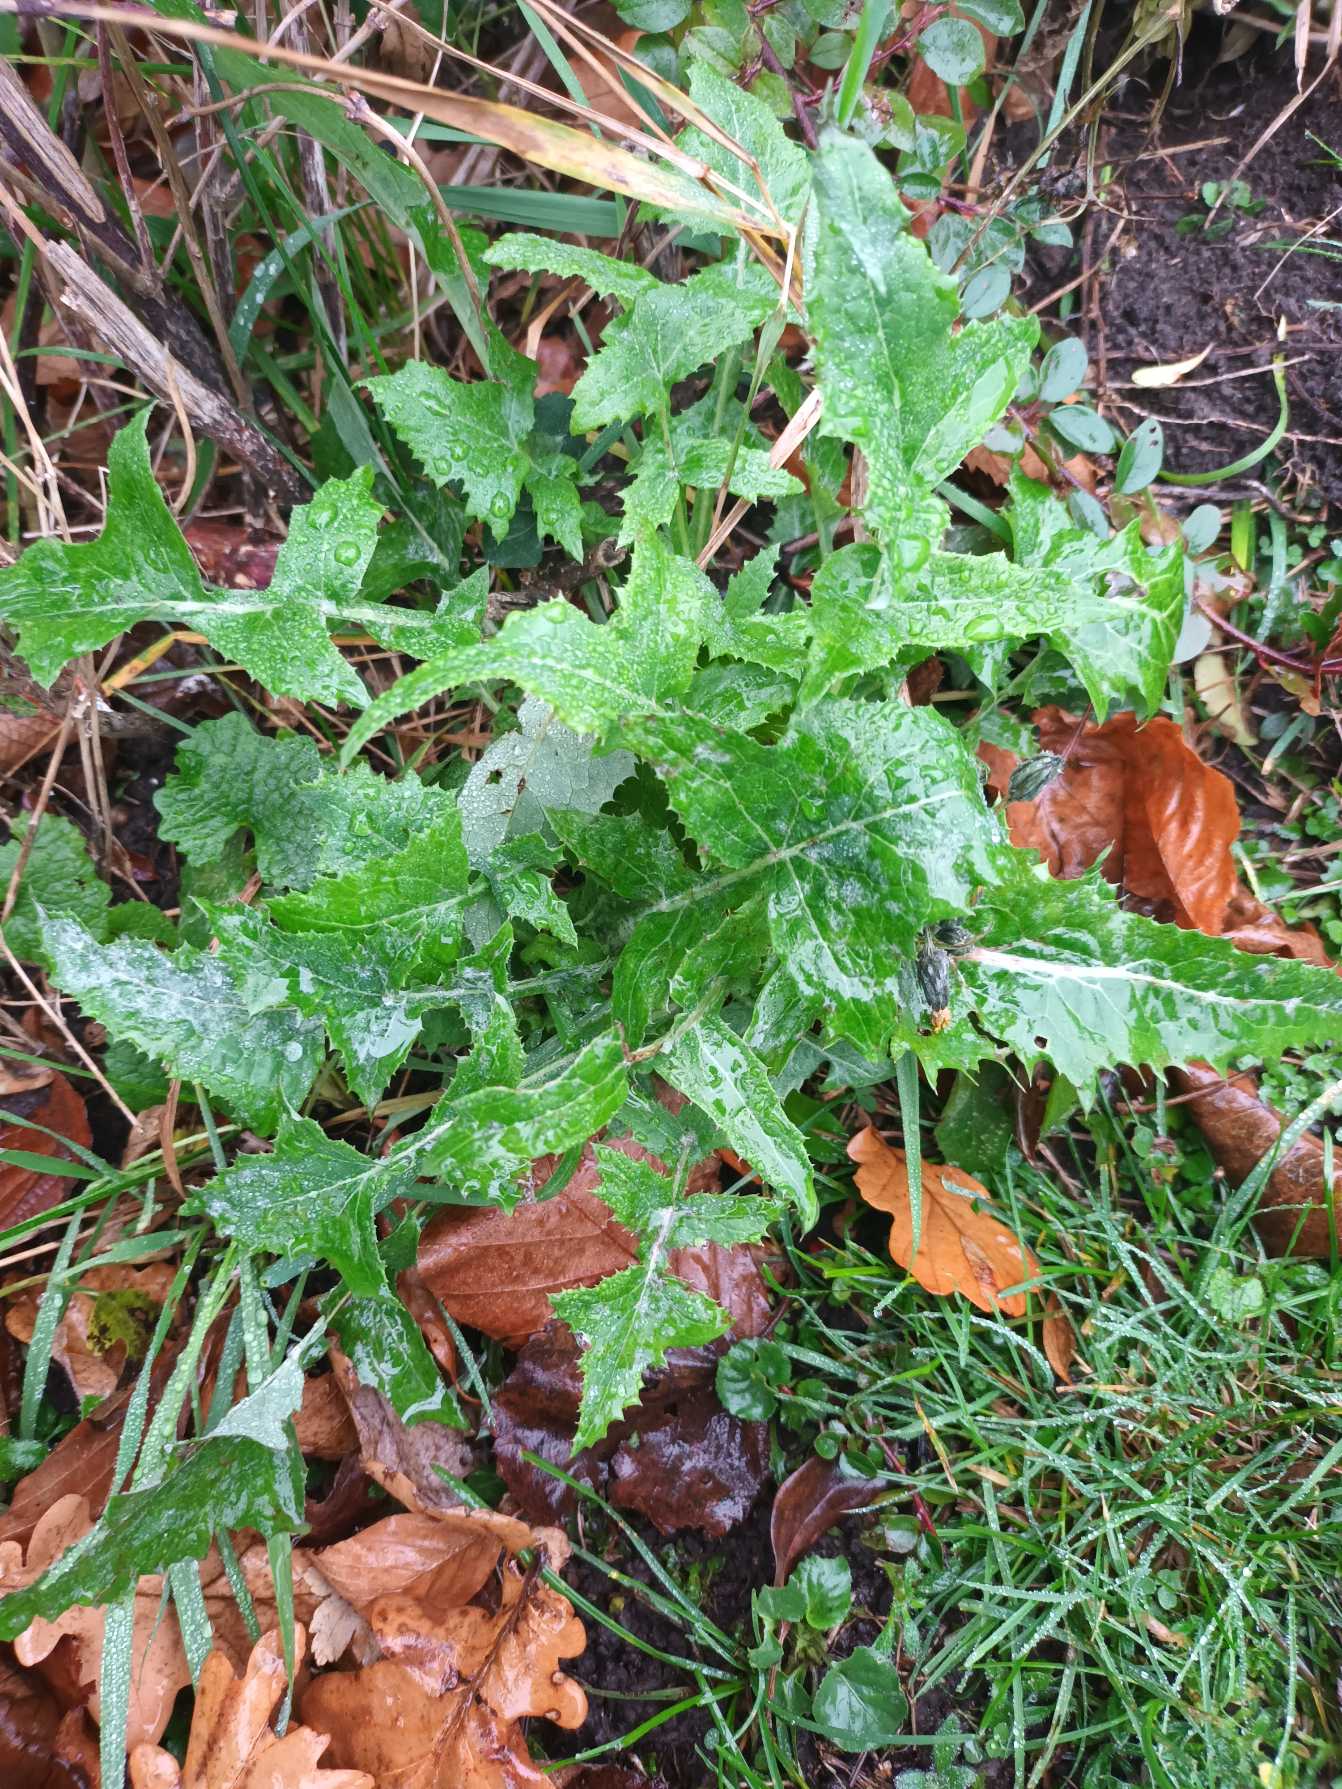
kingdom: Plantae
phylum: Tracheophyta
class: Magnoliopsida
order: Asterales
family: Asteraceae
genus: Sonchus
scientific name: Sonchus oleraceus
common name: Almindelig svinemælk
